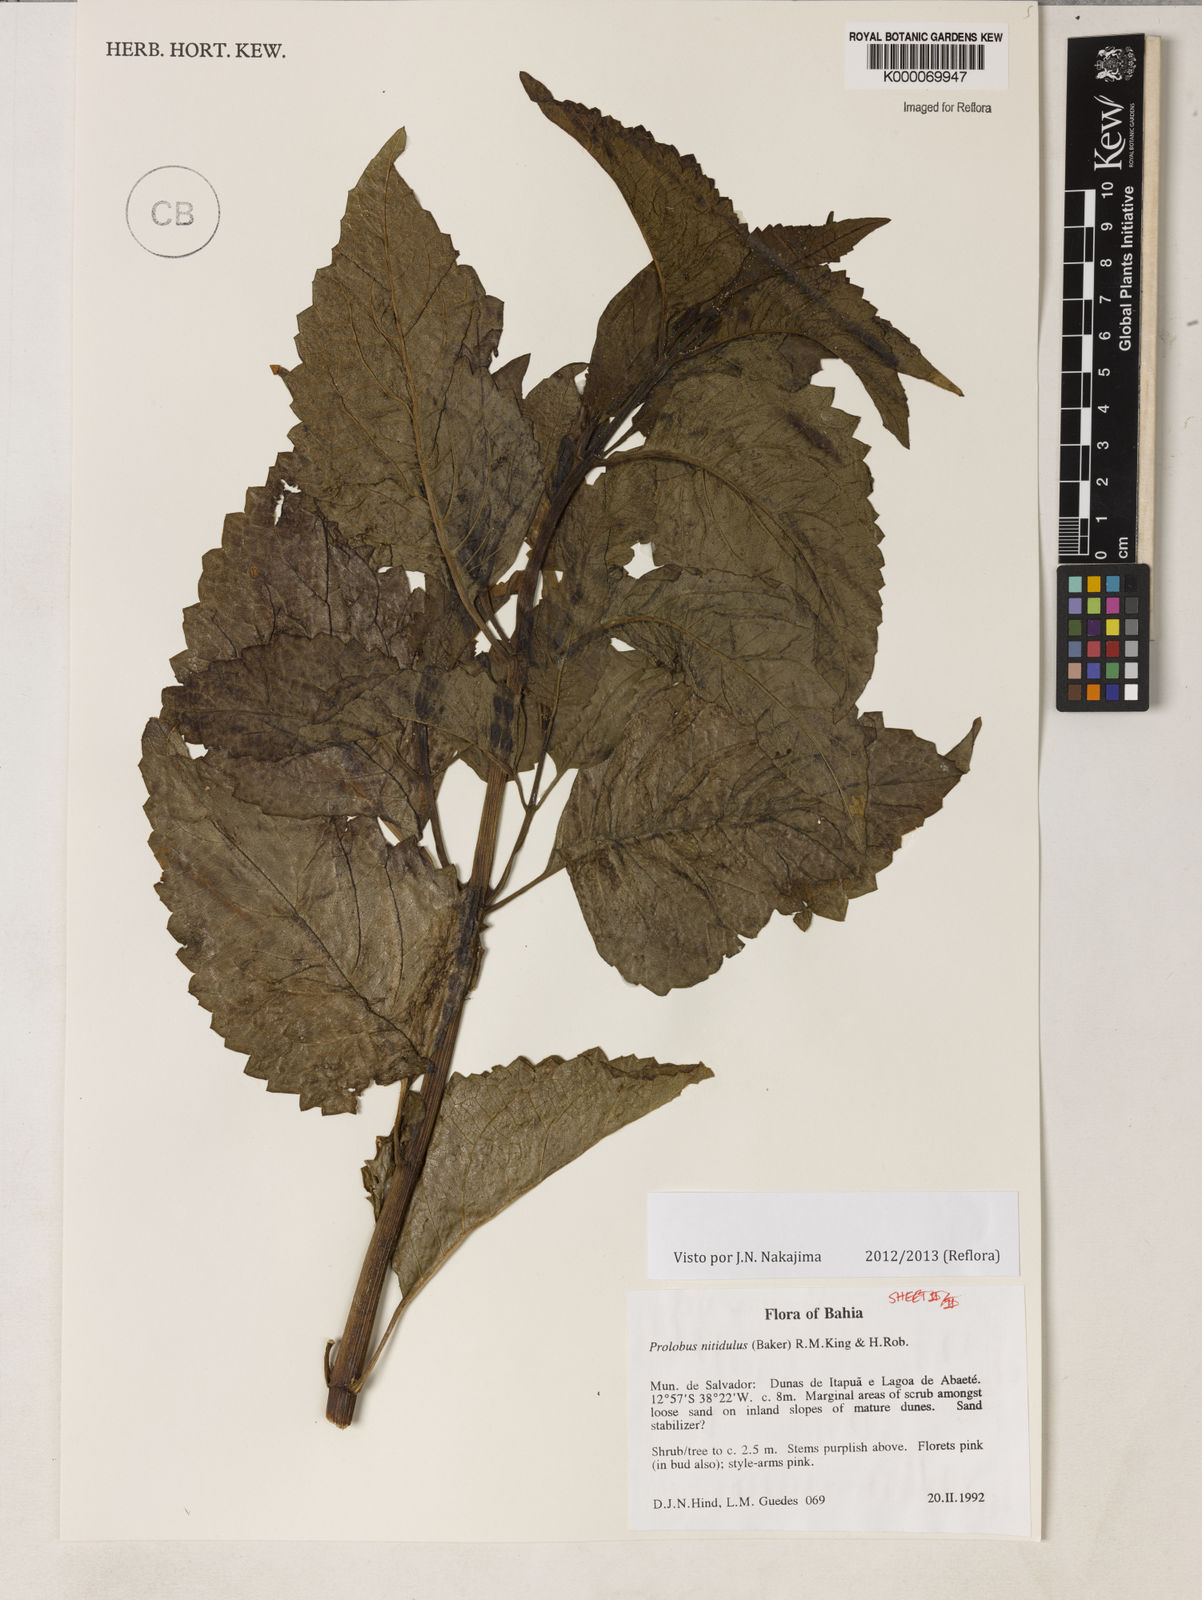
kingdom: Plantae
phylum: Tracheophyta
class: Magnoliopsida
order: Asterales
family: Asteraceae
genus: Prolobus
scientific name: Prolobus nitidulus
